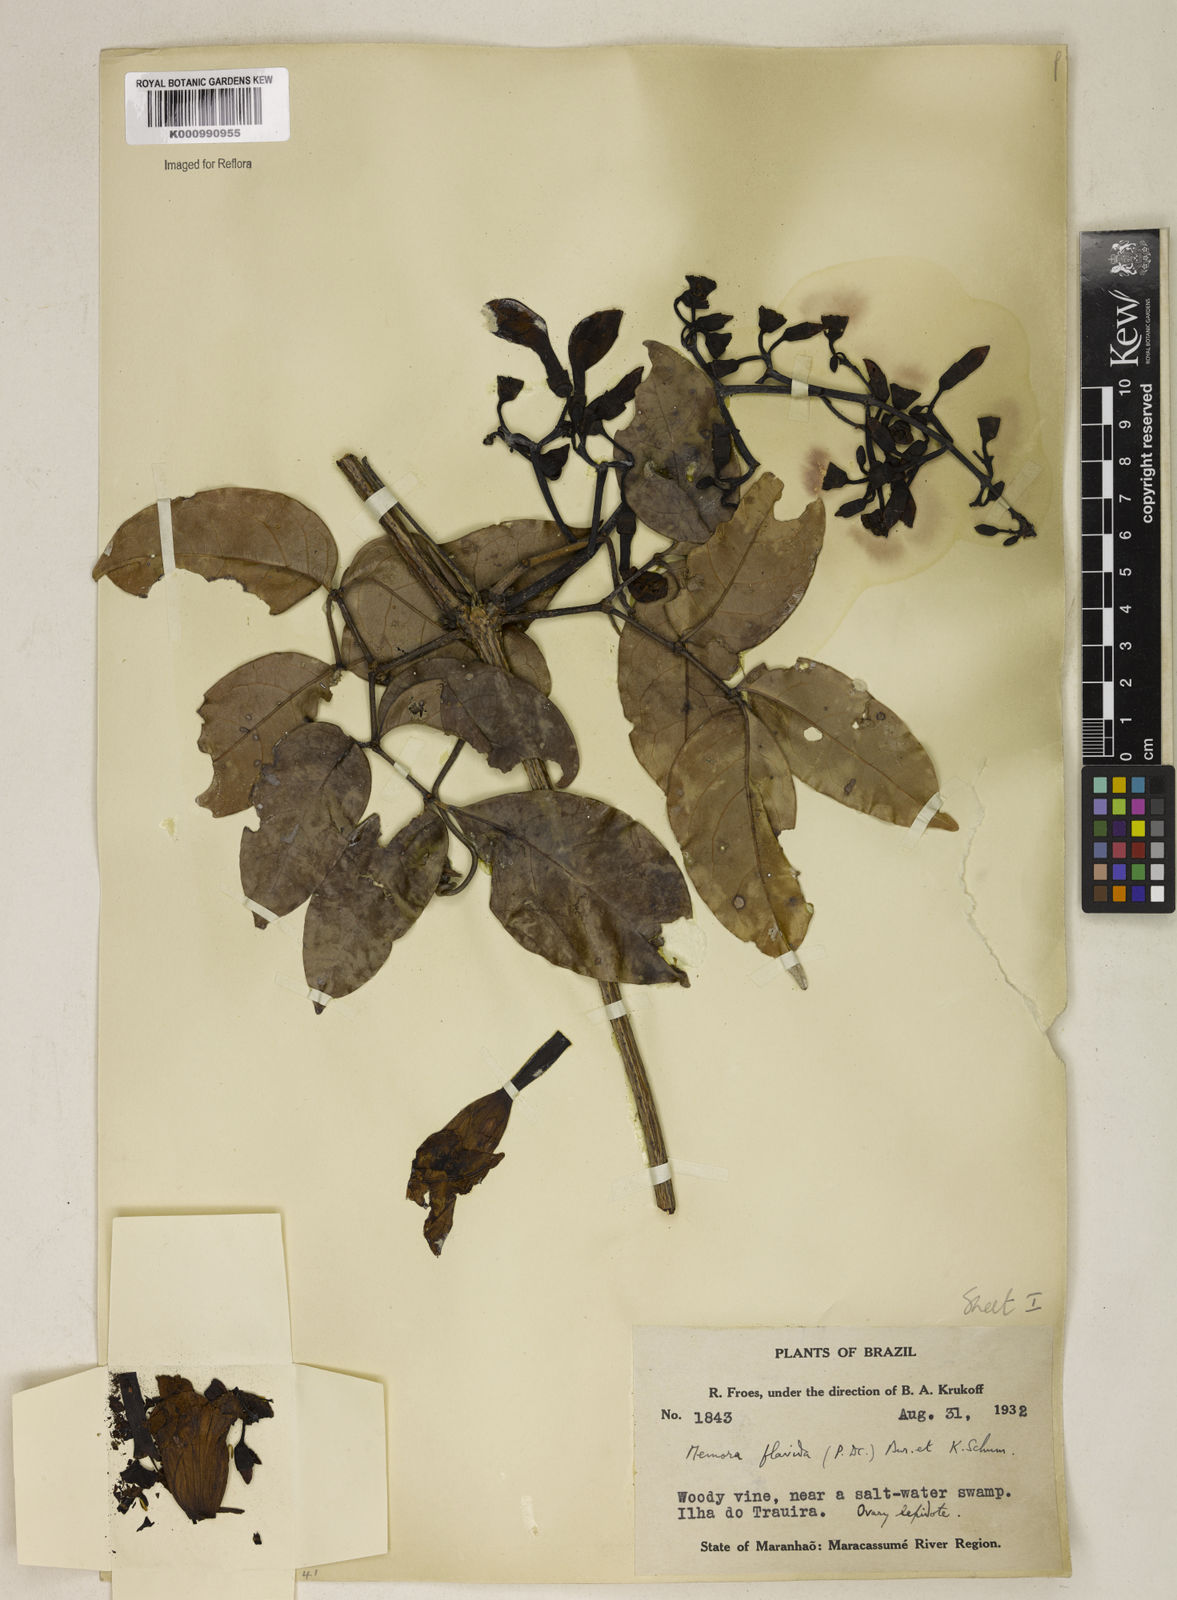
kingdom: Plantae
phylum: Tracheophyta
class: Magnoliopsida
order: Lamiales
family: Bignoniaceae
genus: Adenocalymma
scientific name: Adenocalymma neoflavidum
